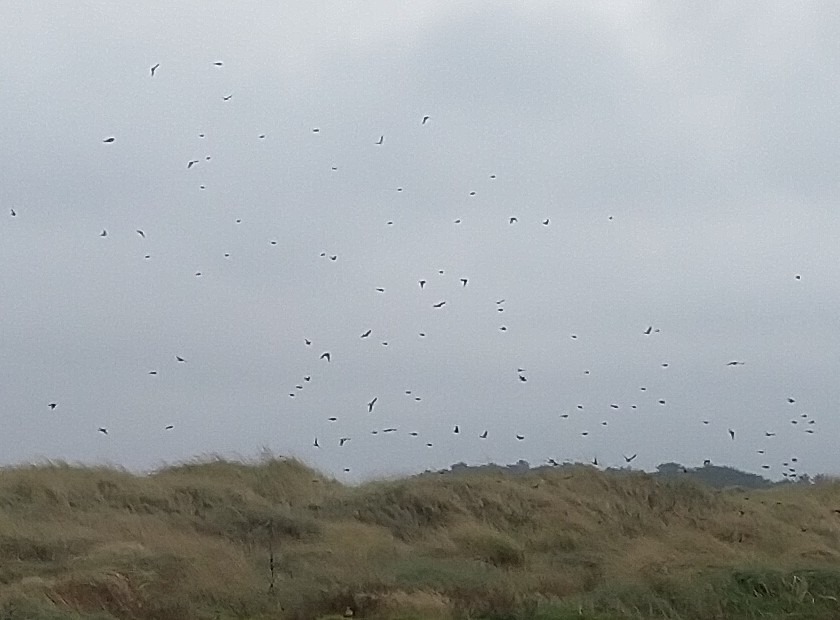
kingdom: Animalia
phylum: Chordata
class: Aves
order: Passeriformes
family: Fringillidae
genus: Linaria
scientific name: Linaria flavirostris
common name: Bjergirisk
